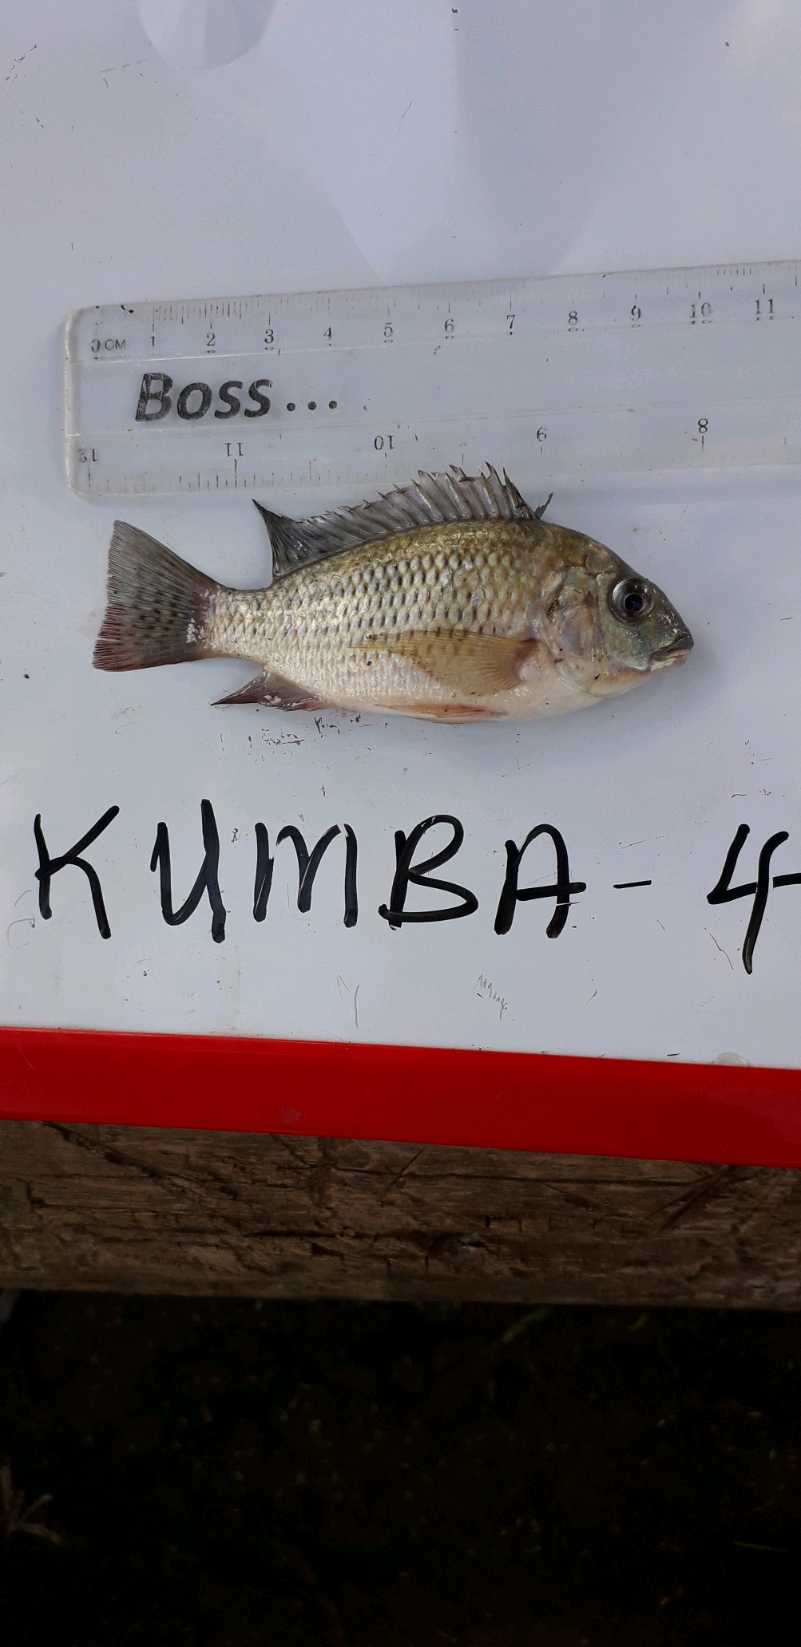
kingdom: Animalia
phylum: Chordata
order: Perciformes
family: Cichlidae
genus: Coptodon
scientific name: Coptodon rendalli
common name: Redbreast tilapia
